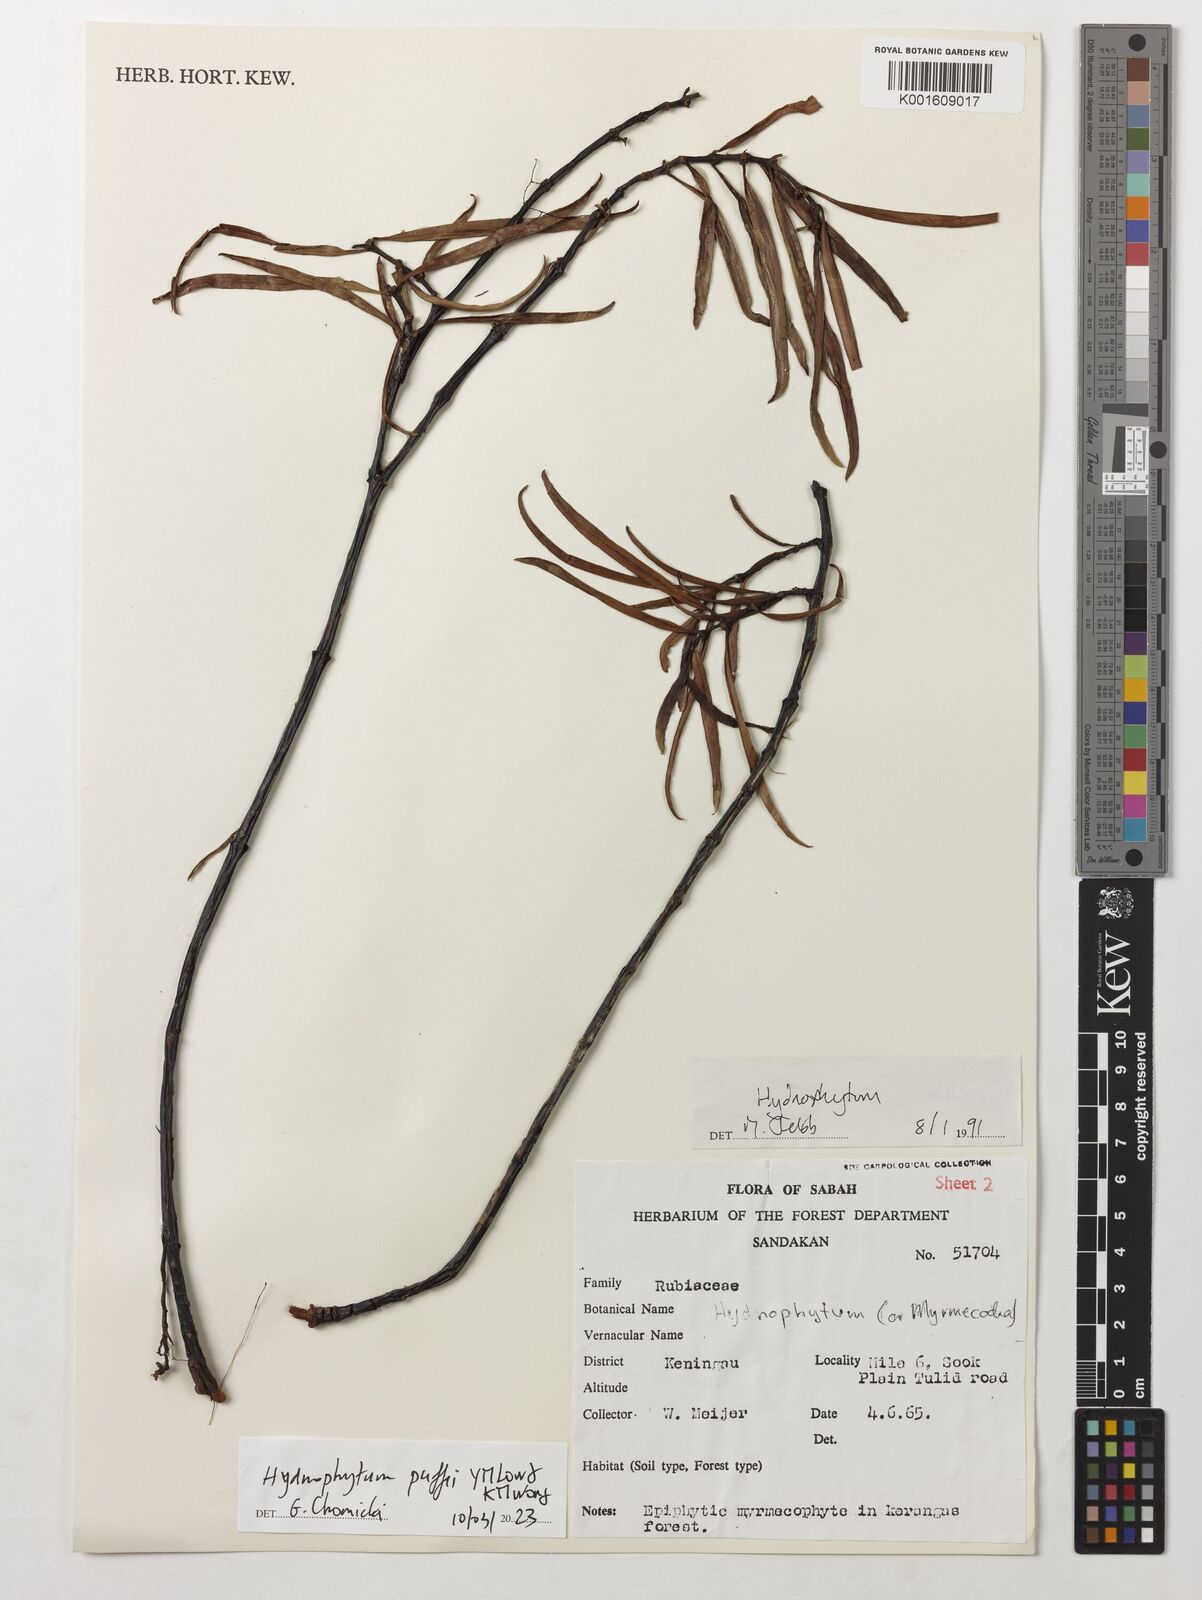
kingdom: Plantae
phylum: Tracheophyta
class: Magnoliopsida
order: Gentianales
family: Rubiaceae
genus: Hydnophytum
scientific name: Hydnophytum puffii
